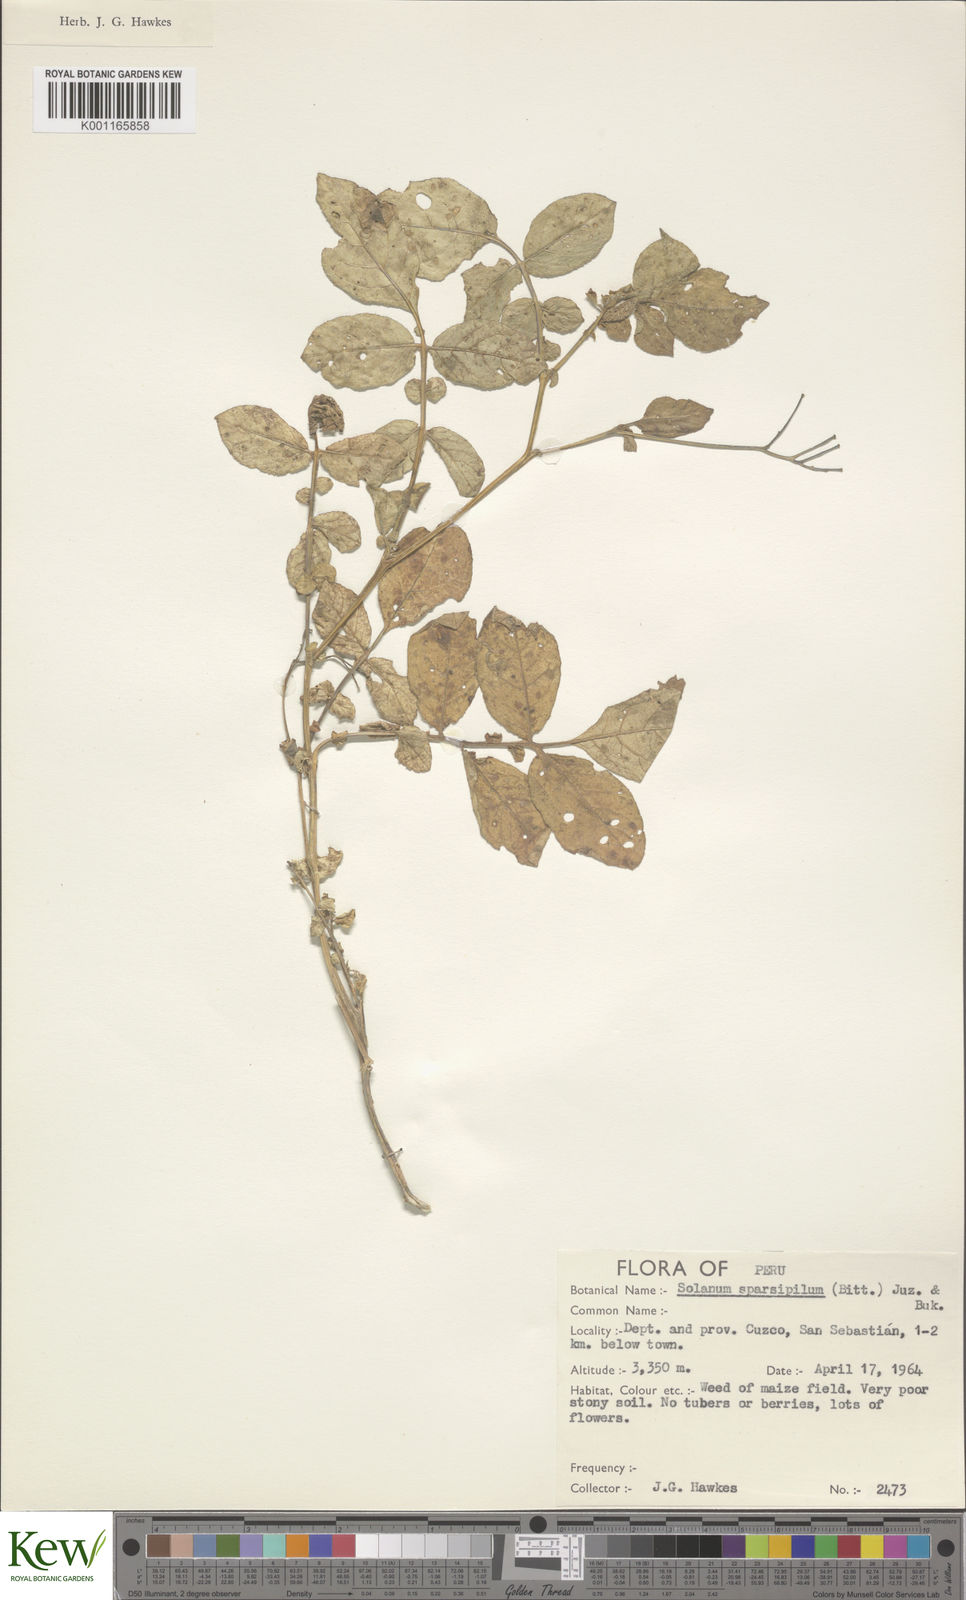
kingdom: Plantae
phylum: Tracheophyta
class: Magnoliopsida
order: Solanales
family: Solanaceae
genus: Solanum
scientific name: Solanum brevicaule
